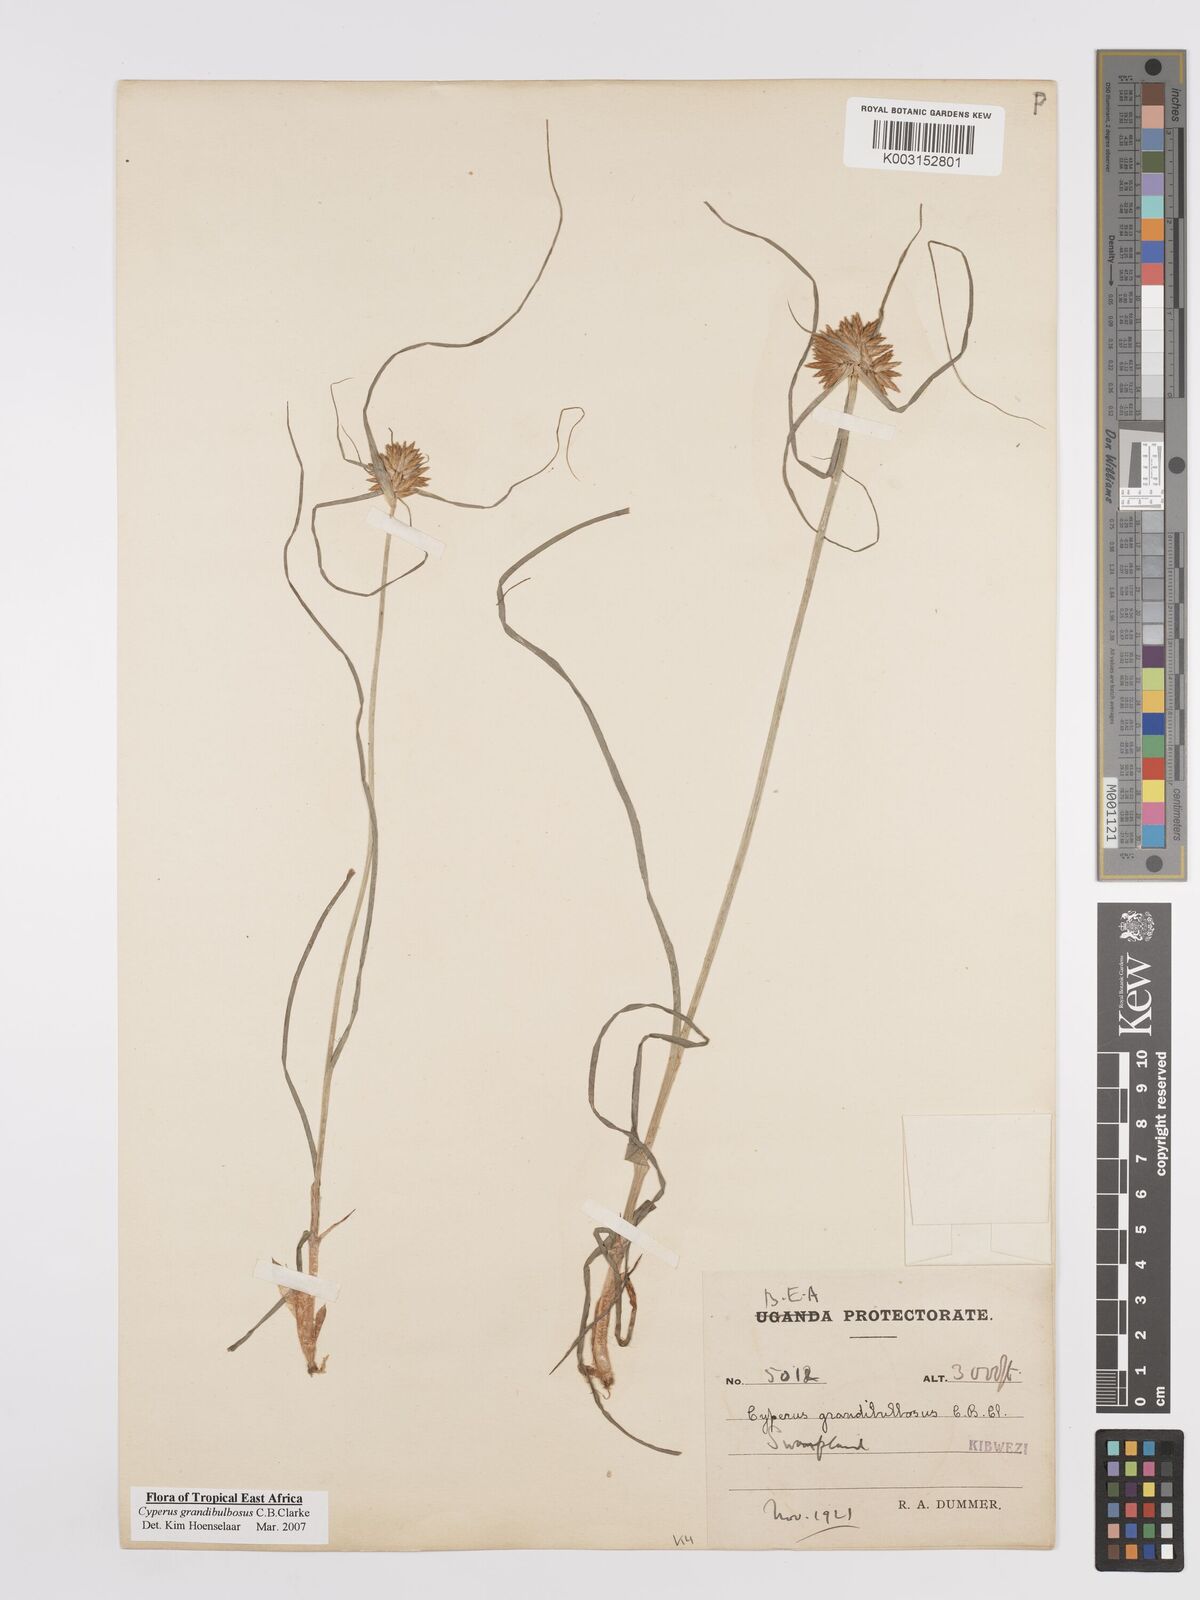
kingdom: Plantae
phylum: Tracheophyta
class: Liliopsida
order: Poales
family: Cyperaceae
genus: Cyperus
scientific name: Cyperus grandibulbosus
